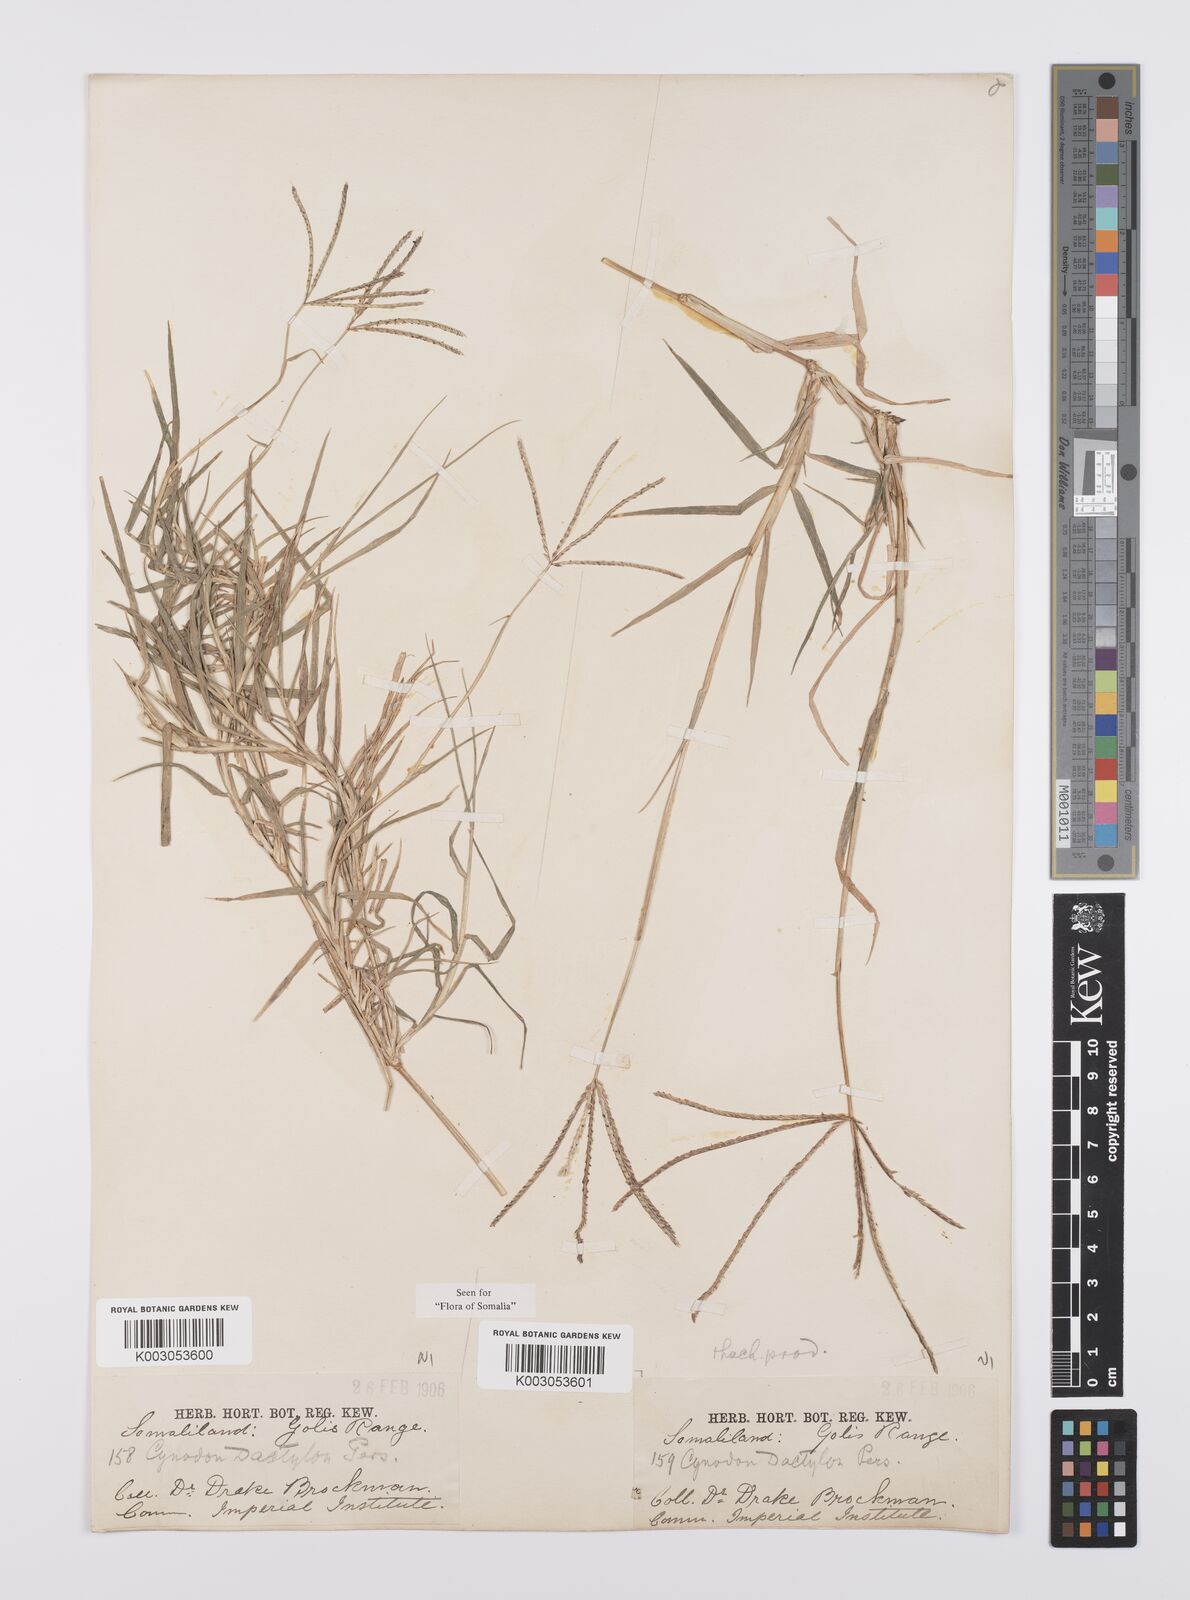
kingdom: Plantae
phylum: Tracheophyta
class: Liliopsida
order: Poales
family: Poaceae
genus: Cynodon
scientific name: Cynodon dactylon
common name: Bermuda grass
